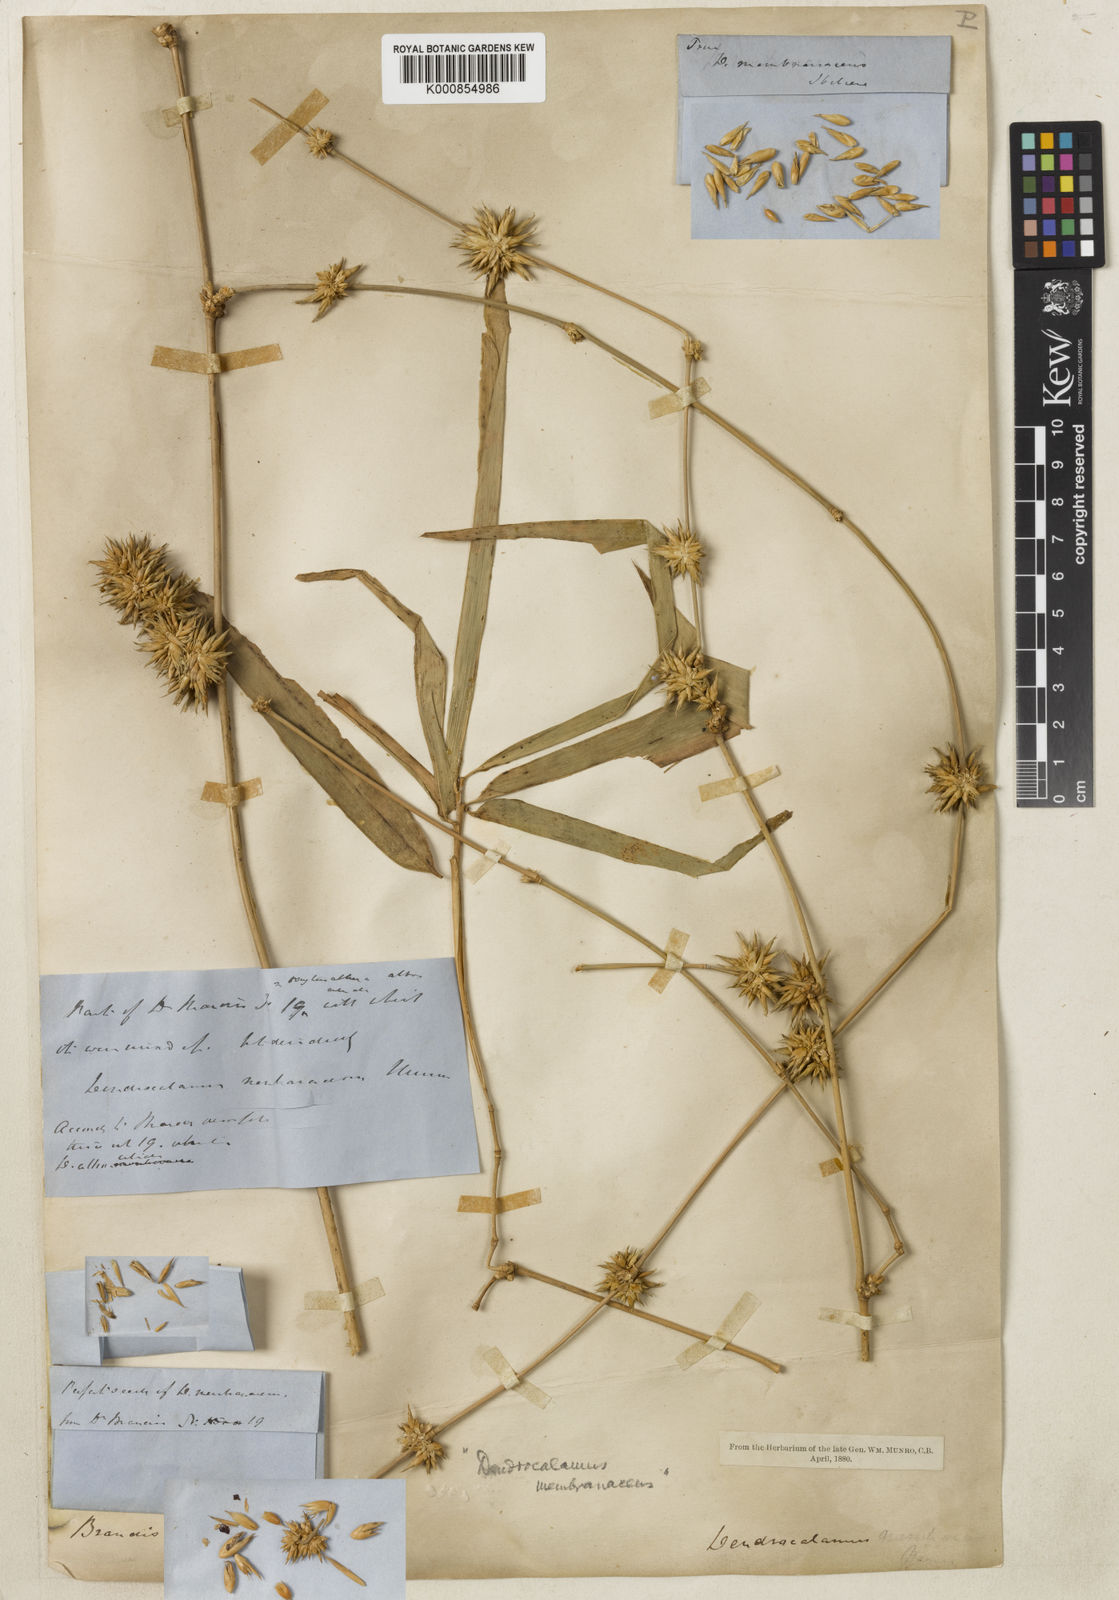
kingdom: Plantae
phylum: Tracheophyta
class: Liliopsida
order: Poales
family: Poaceae
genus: Dendrocalamus
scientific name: Dendrocalamus membranaceus
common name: White bamboo
